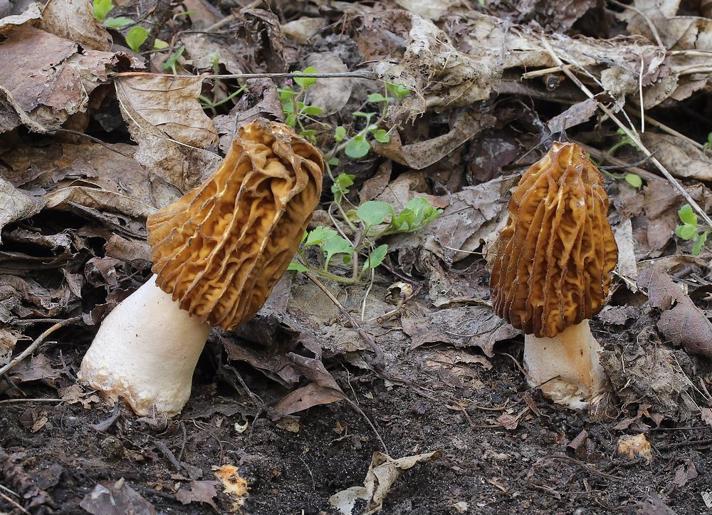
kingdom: Fungi
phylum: Ascomycota
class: Pezizomycetes
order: Pezizales
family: Morchellaceae
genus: Verpa
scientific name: Verpa bohemica
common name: rynket klokkemorkel
